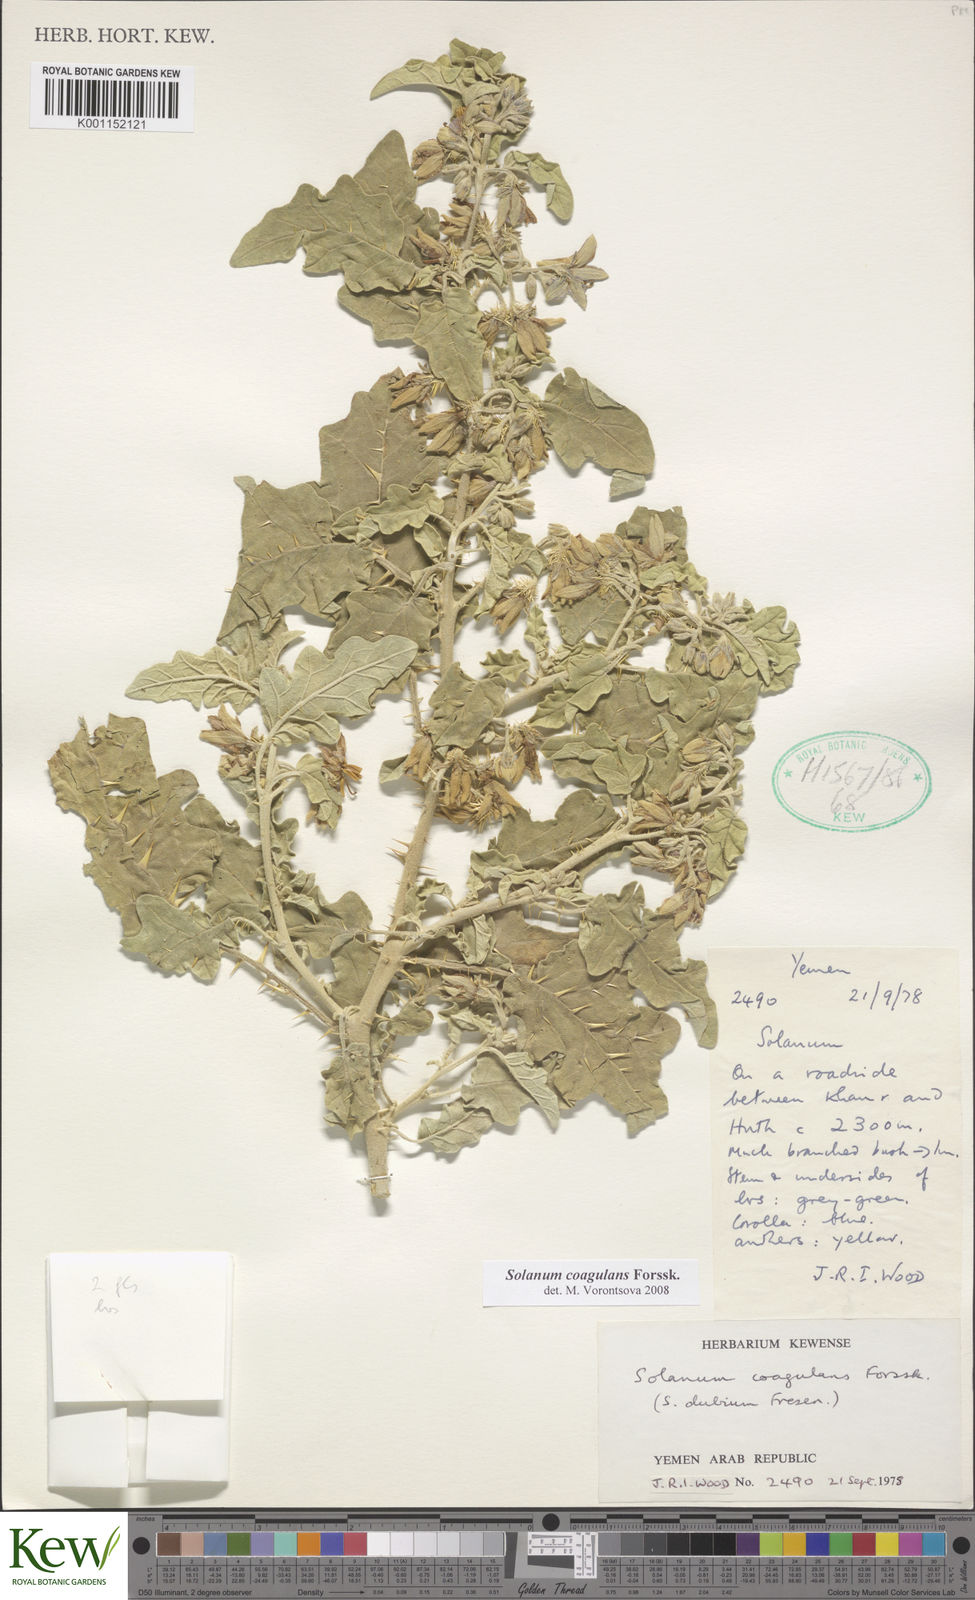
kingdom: Plantae
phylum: Tracheophyta
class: Magnoliopsida
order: Solanales
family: Solanaceae
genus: Solanum
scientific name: Solanum coagulans
